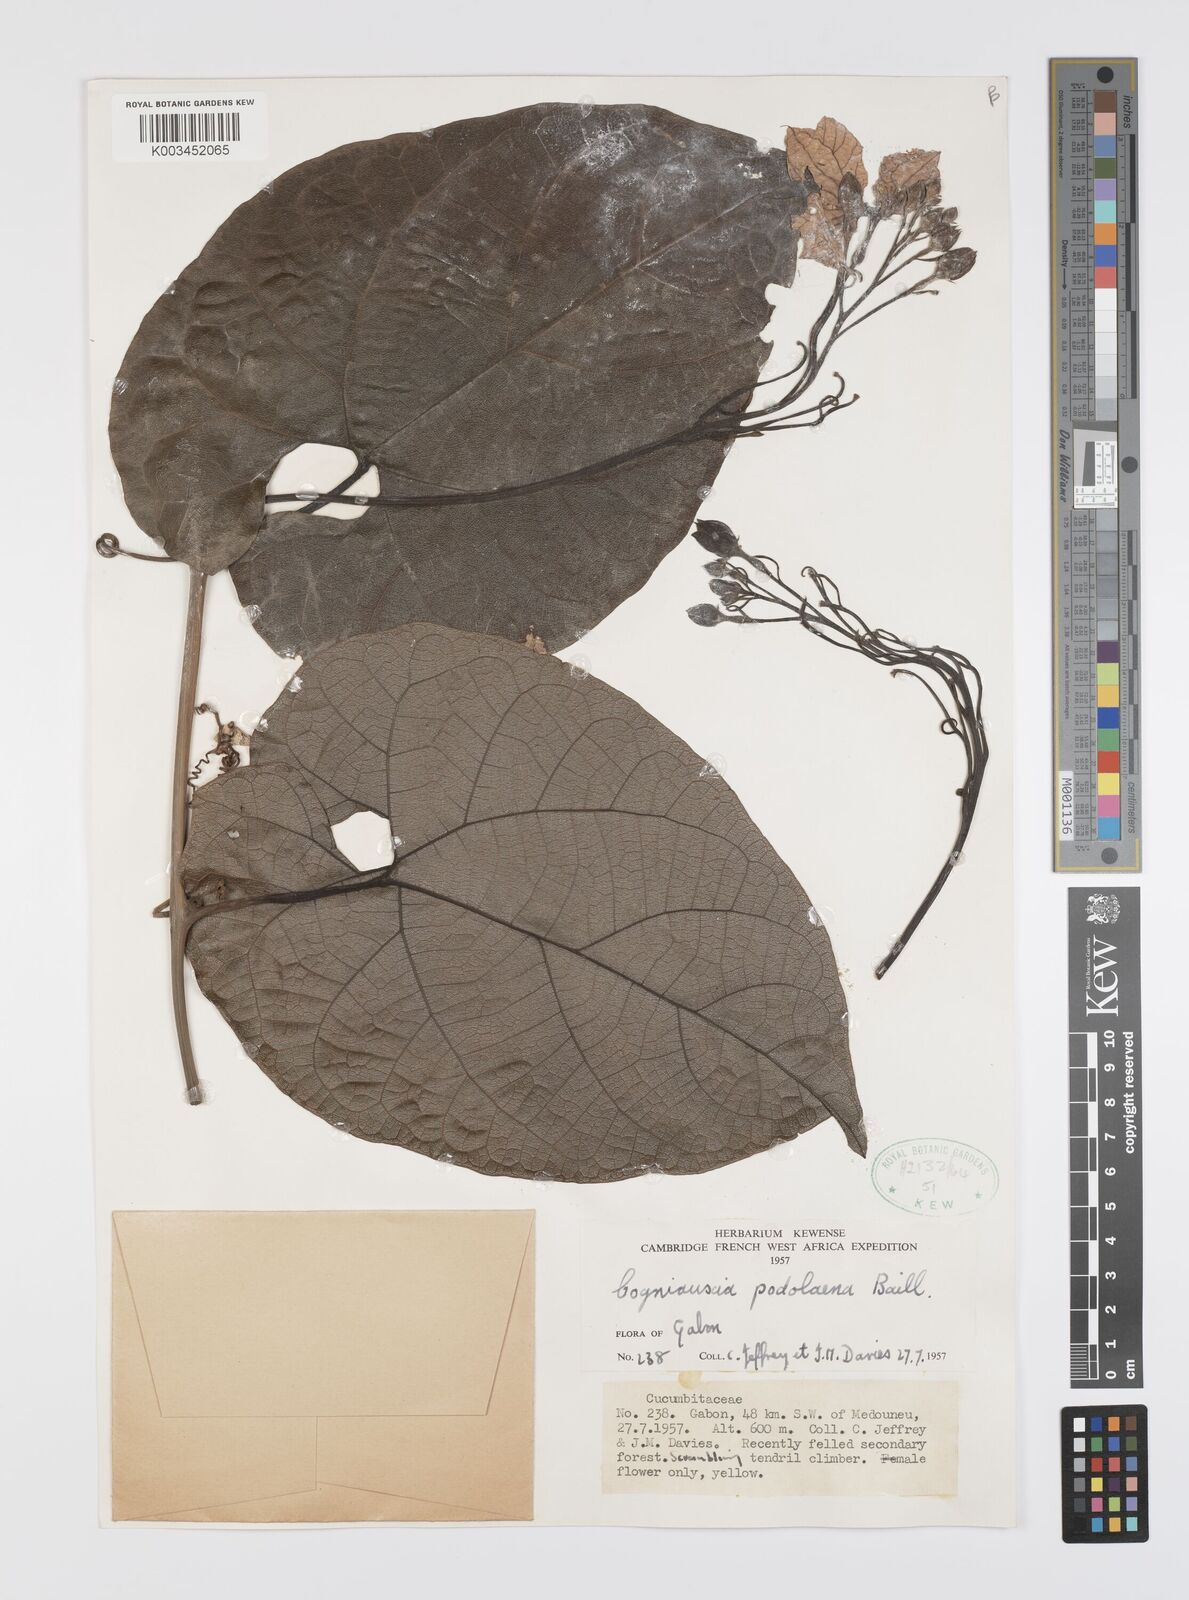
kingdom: Plantae
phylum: Tracheophyta
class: Magnoliopsida
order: Cucurbitales
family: Cucurbitaceae
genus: Cogniauxia
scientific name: Cogniauxia podolaena
